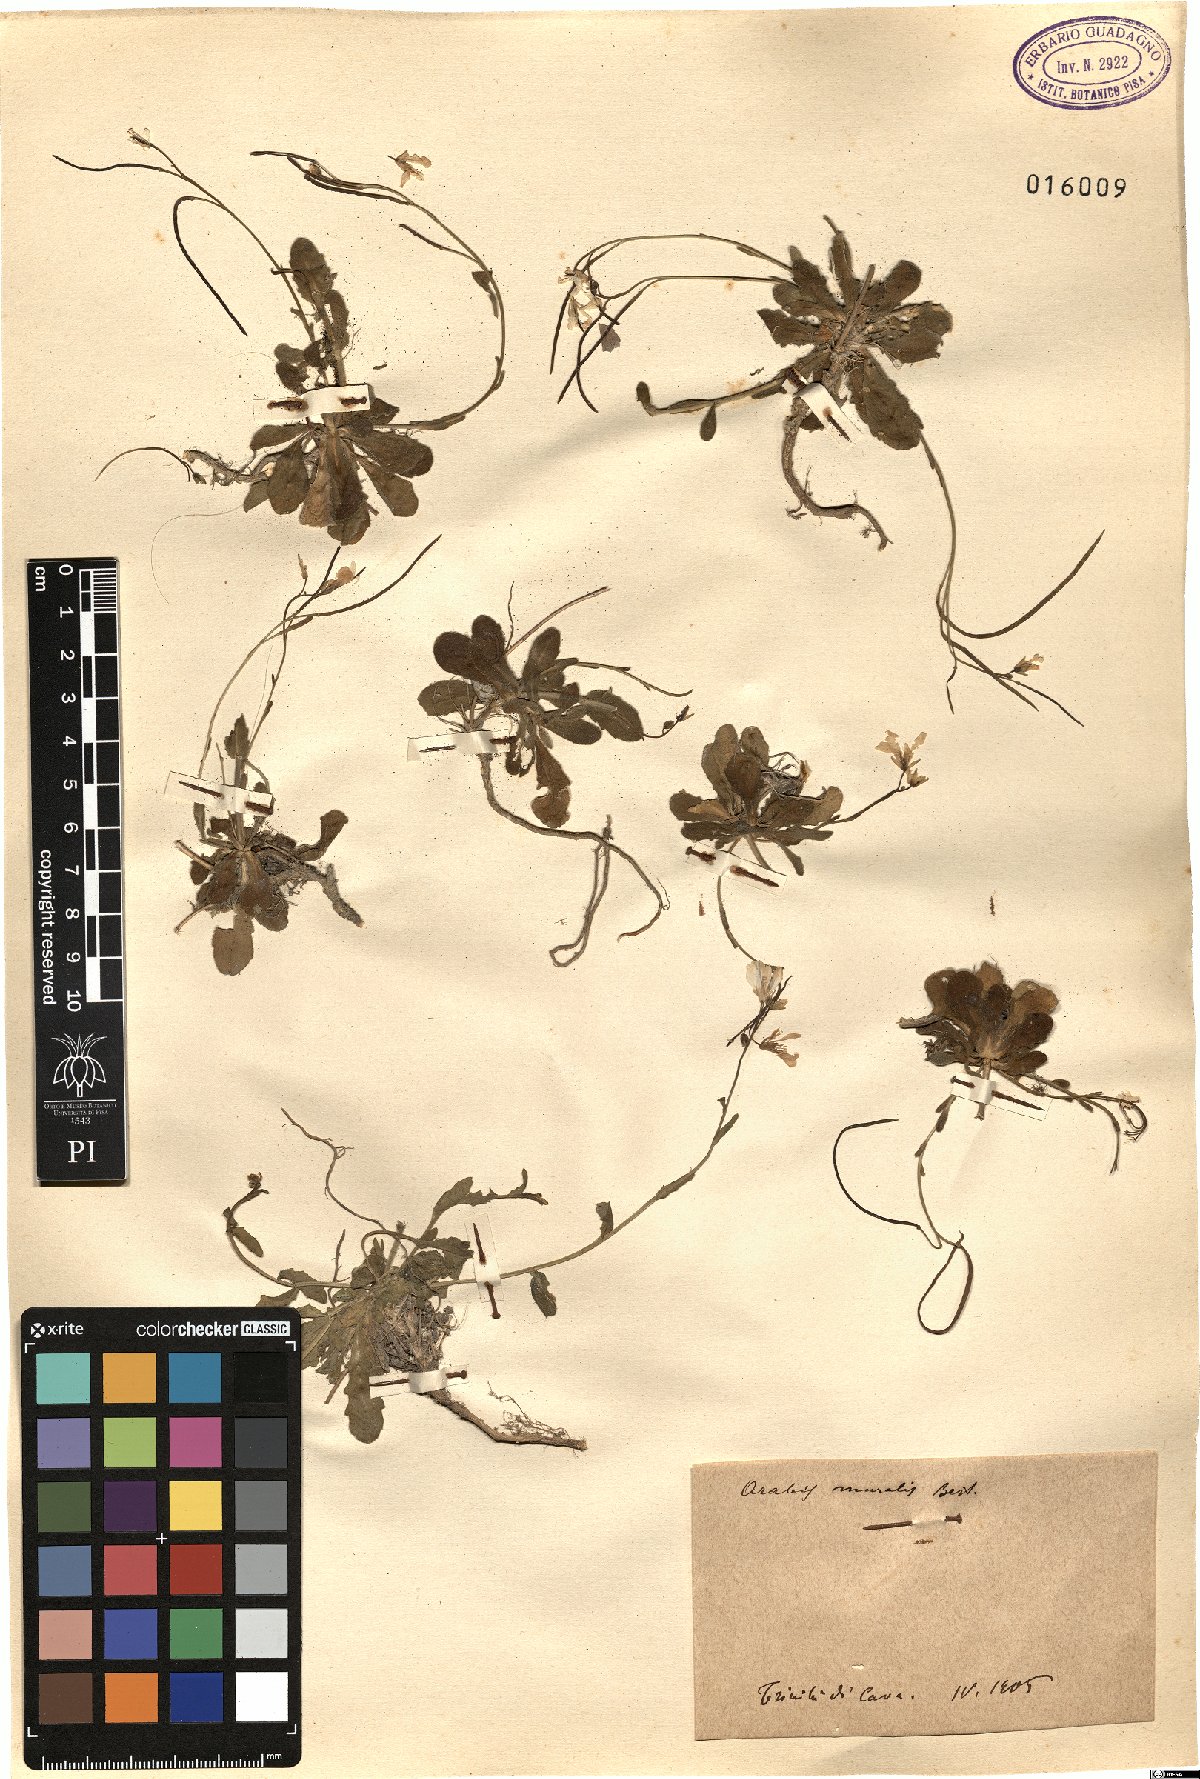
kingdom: Plantae
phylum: Tracheophyta
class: Magnoliopsida
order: Brassicales
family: Brassicaceae
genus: Arabis
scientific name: Arabis collina
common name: Rosy cress
